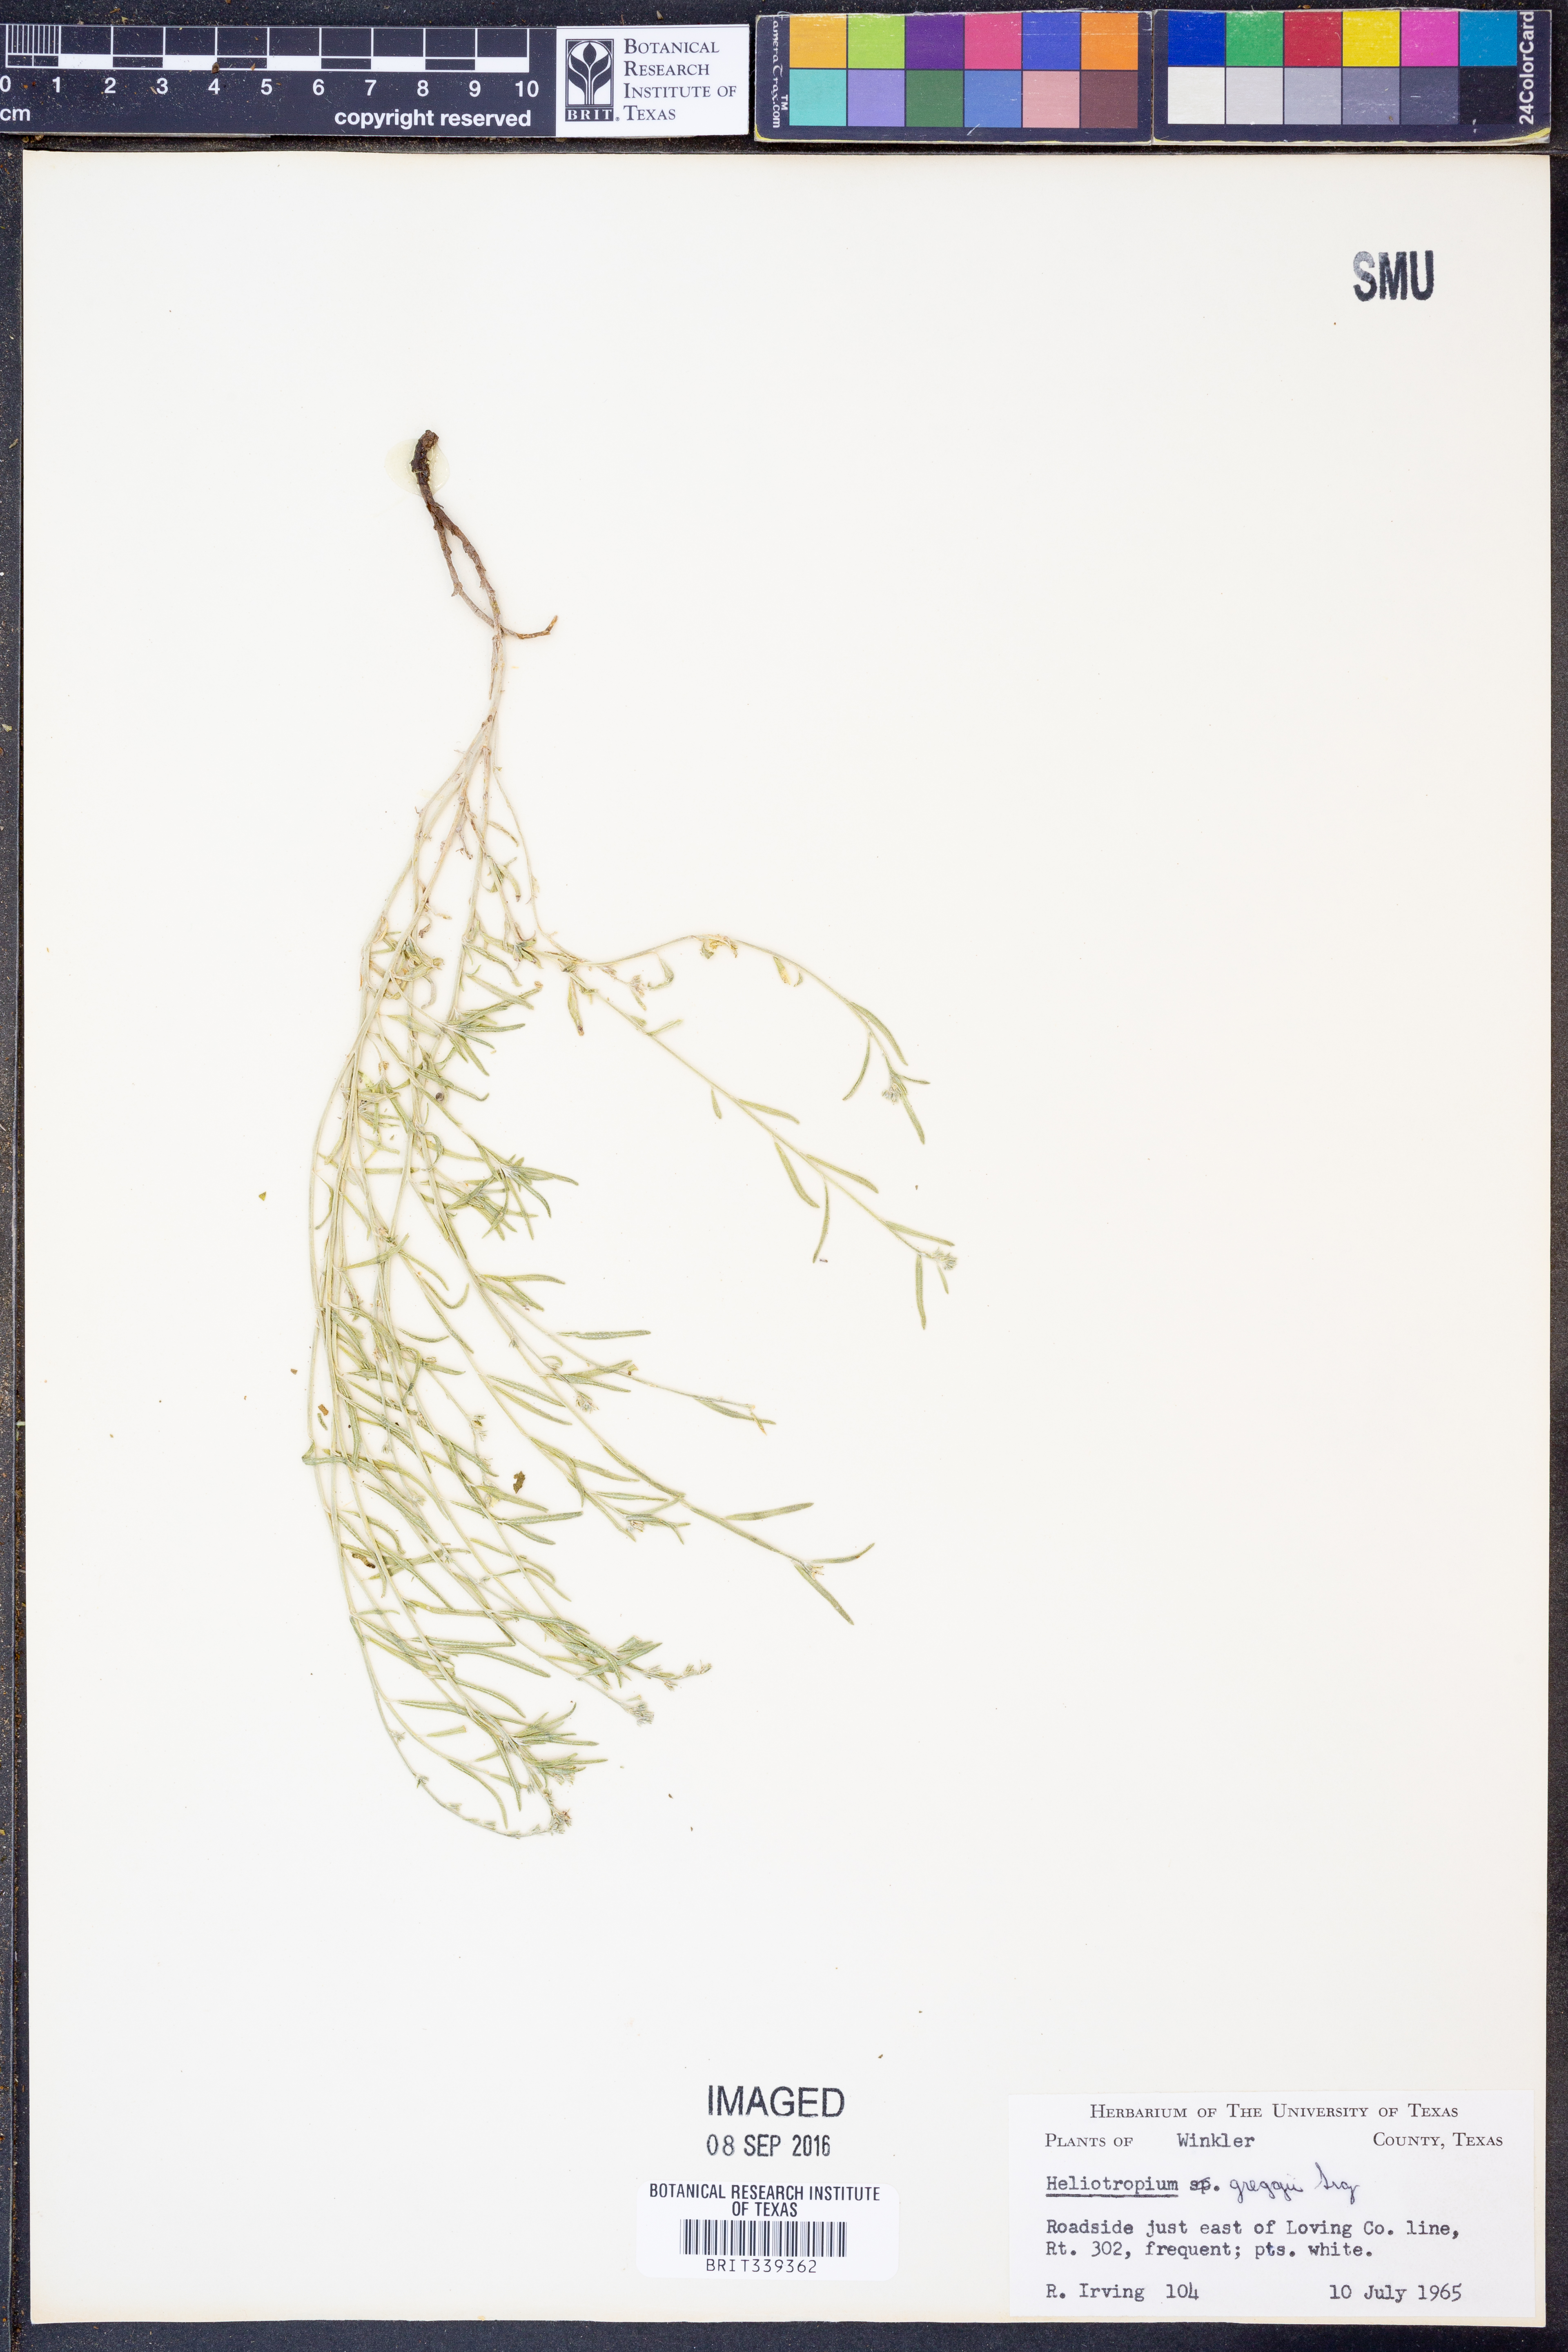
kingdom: Plantae
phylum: Tracheophyta
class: Magnoliopsida
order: Boraginales
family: Heliotropiaceae
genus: Euploca
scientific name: Euploca greggii
